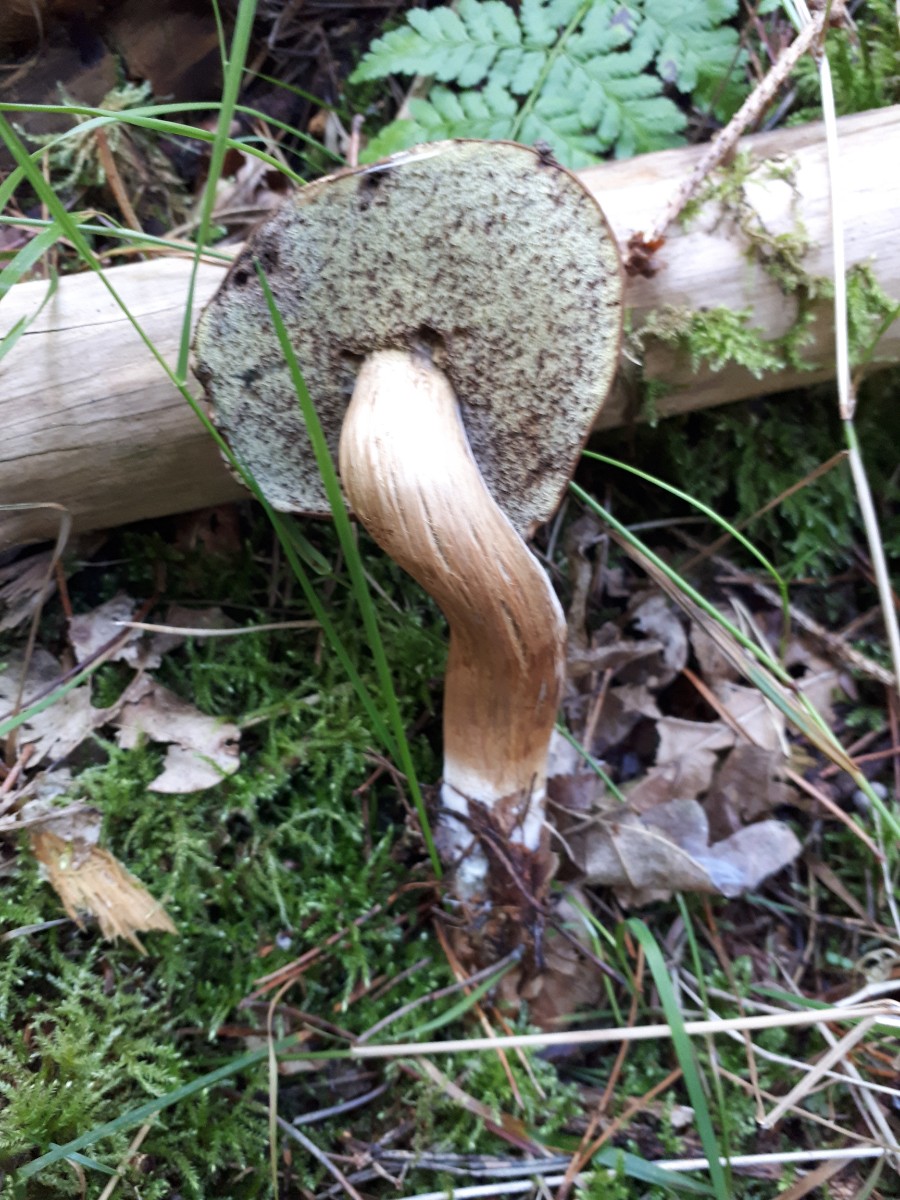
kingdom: Fungi
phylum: Basidiomycota
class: Agaricomycetes
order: Boletales
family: Boletaceae
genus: Imleria
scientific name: Imleria badia
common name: brunstokket rørhat
